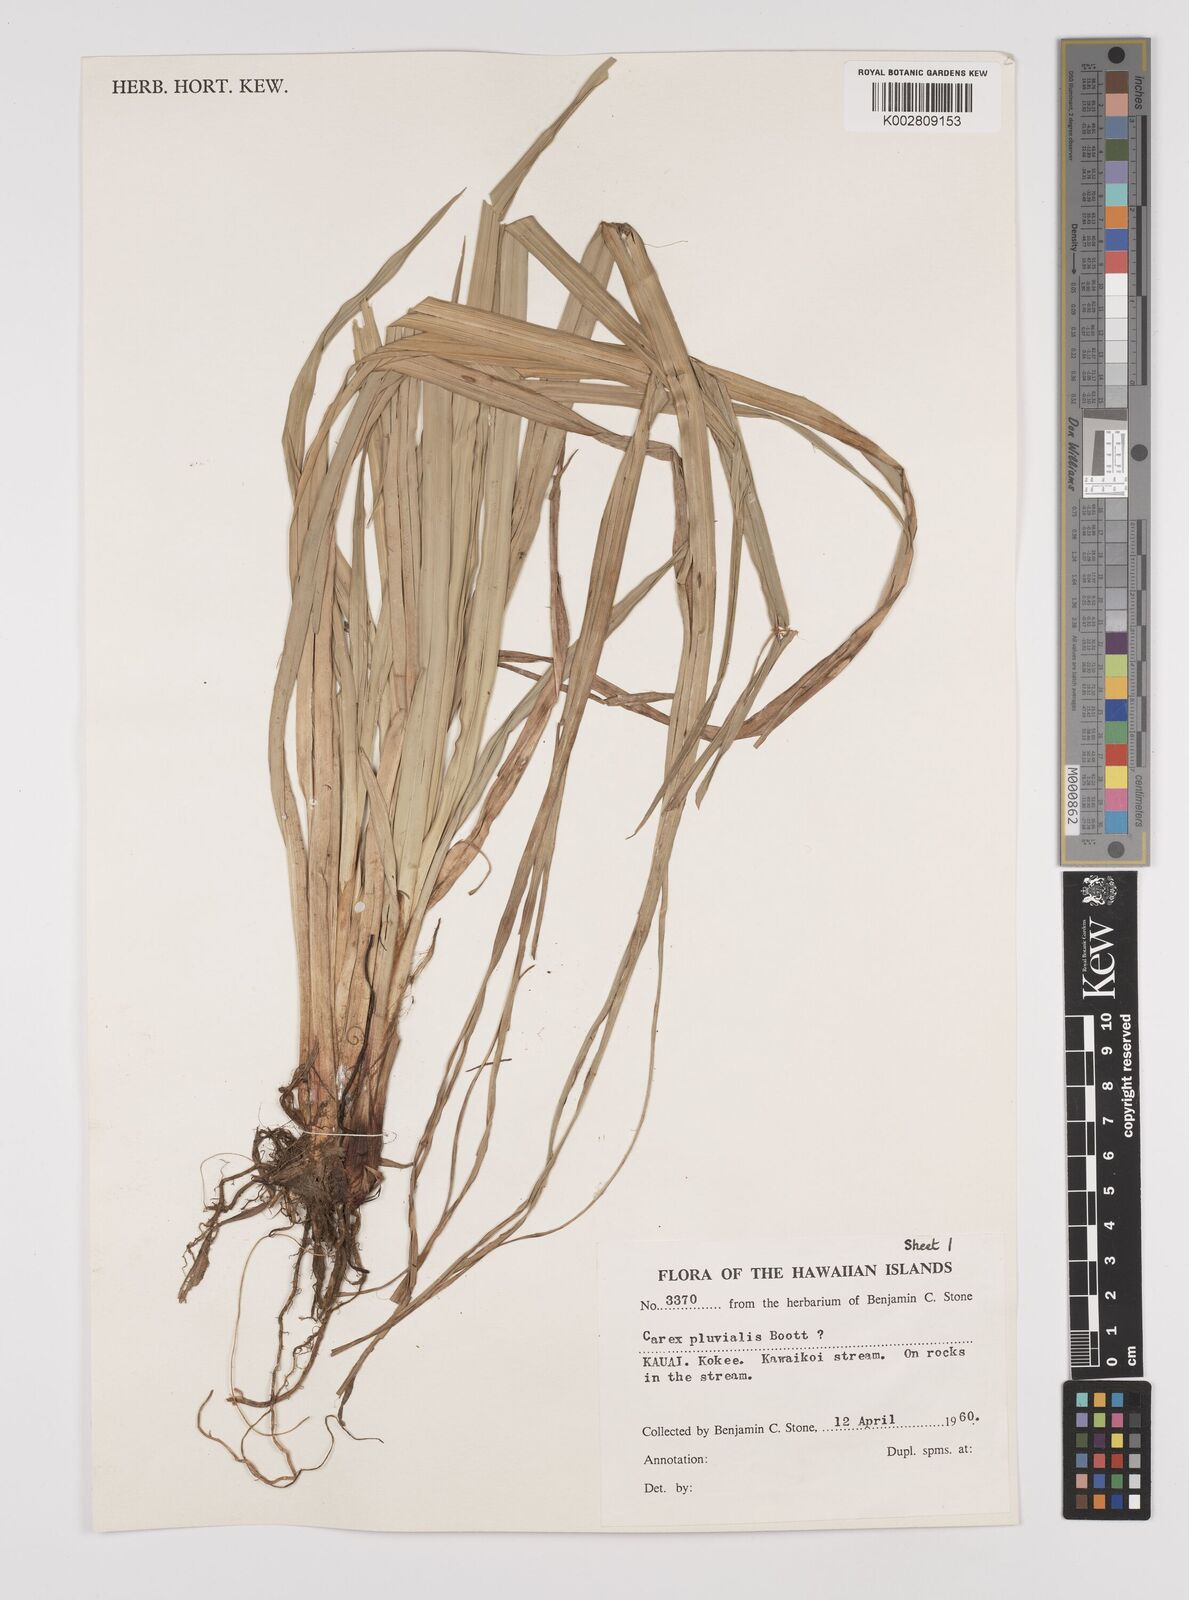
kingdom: Plantae
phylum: Tracheophyta
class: Liliopsida
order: Poales
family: Cyperaceae
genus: Carex
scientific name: Carex alligata
